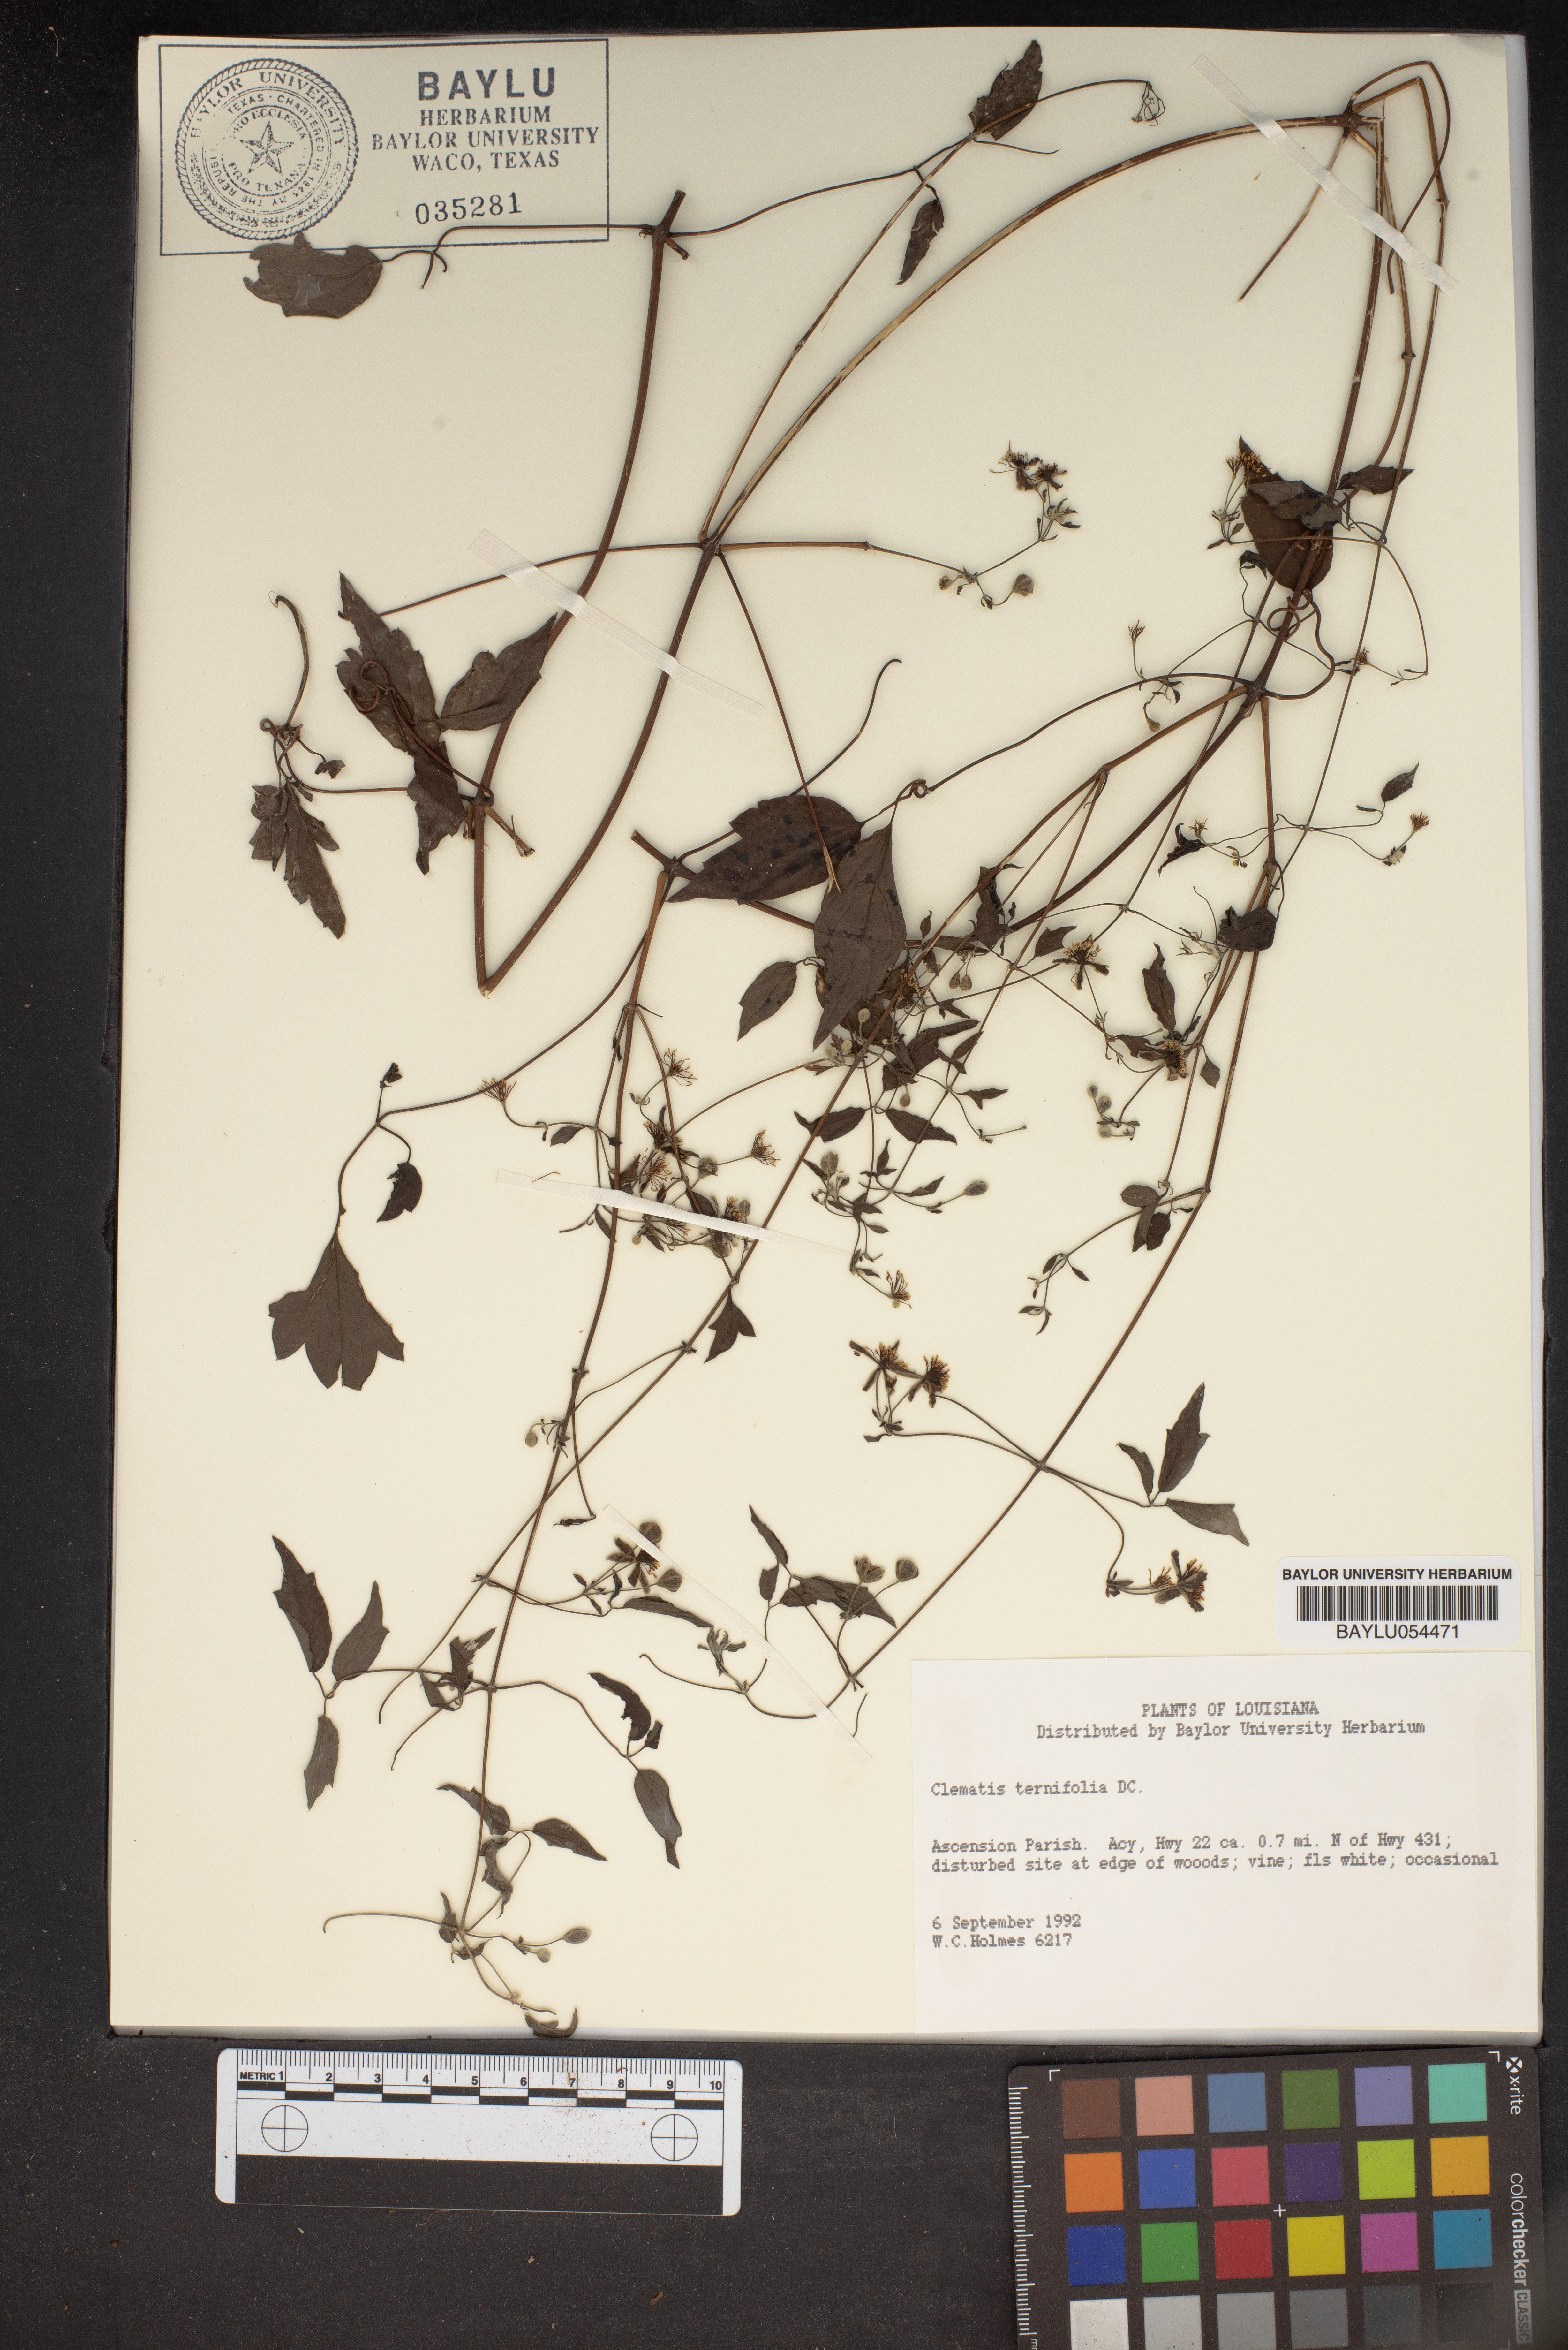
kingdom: Plantae
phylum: Tracheophyta
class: Magnoliopsida
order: Ranunculales
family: Ranunculaceae
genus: Clematis
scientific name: Clematis terniflora
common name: Sweet autumn clematis
